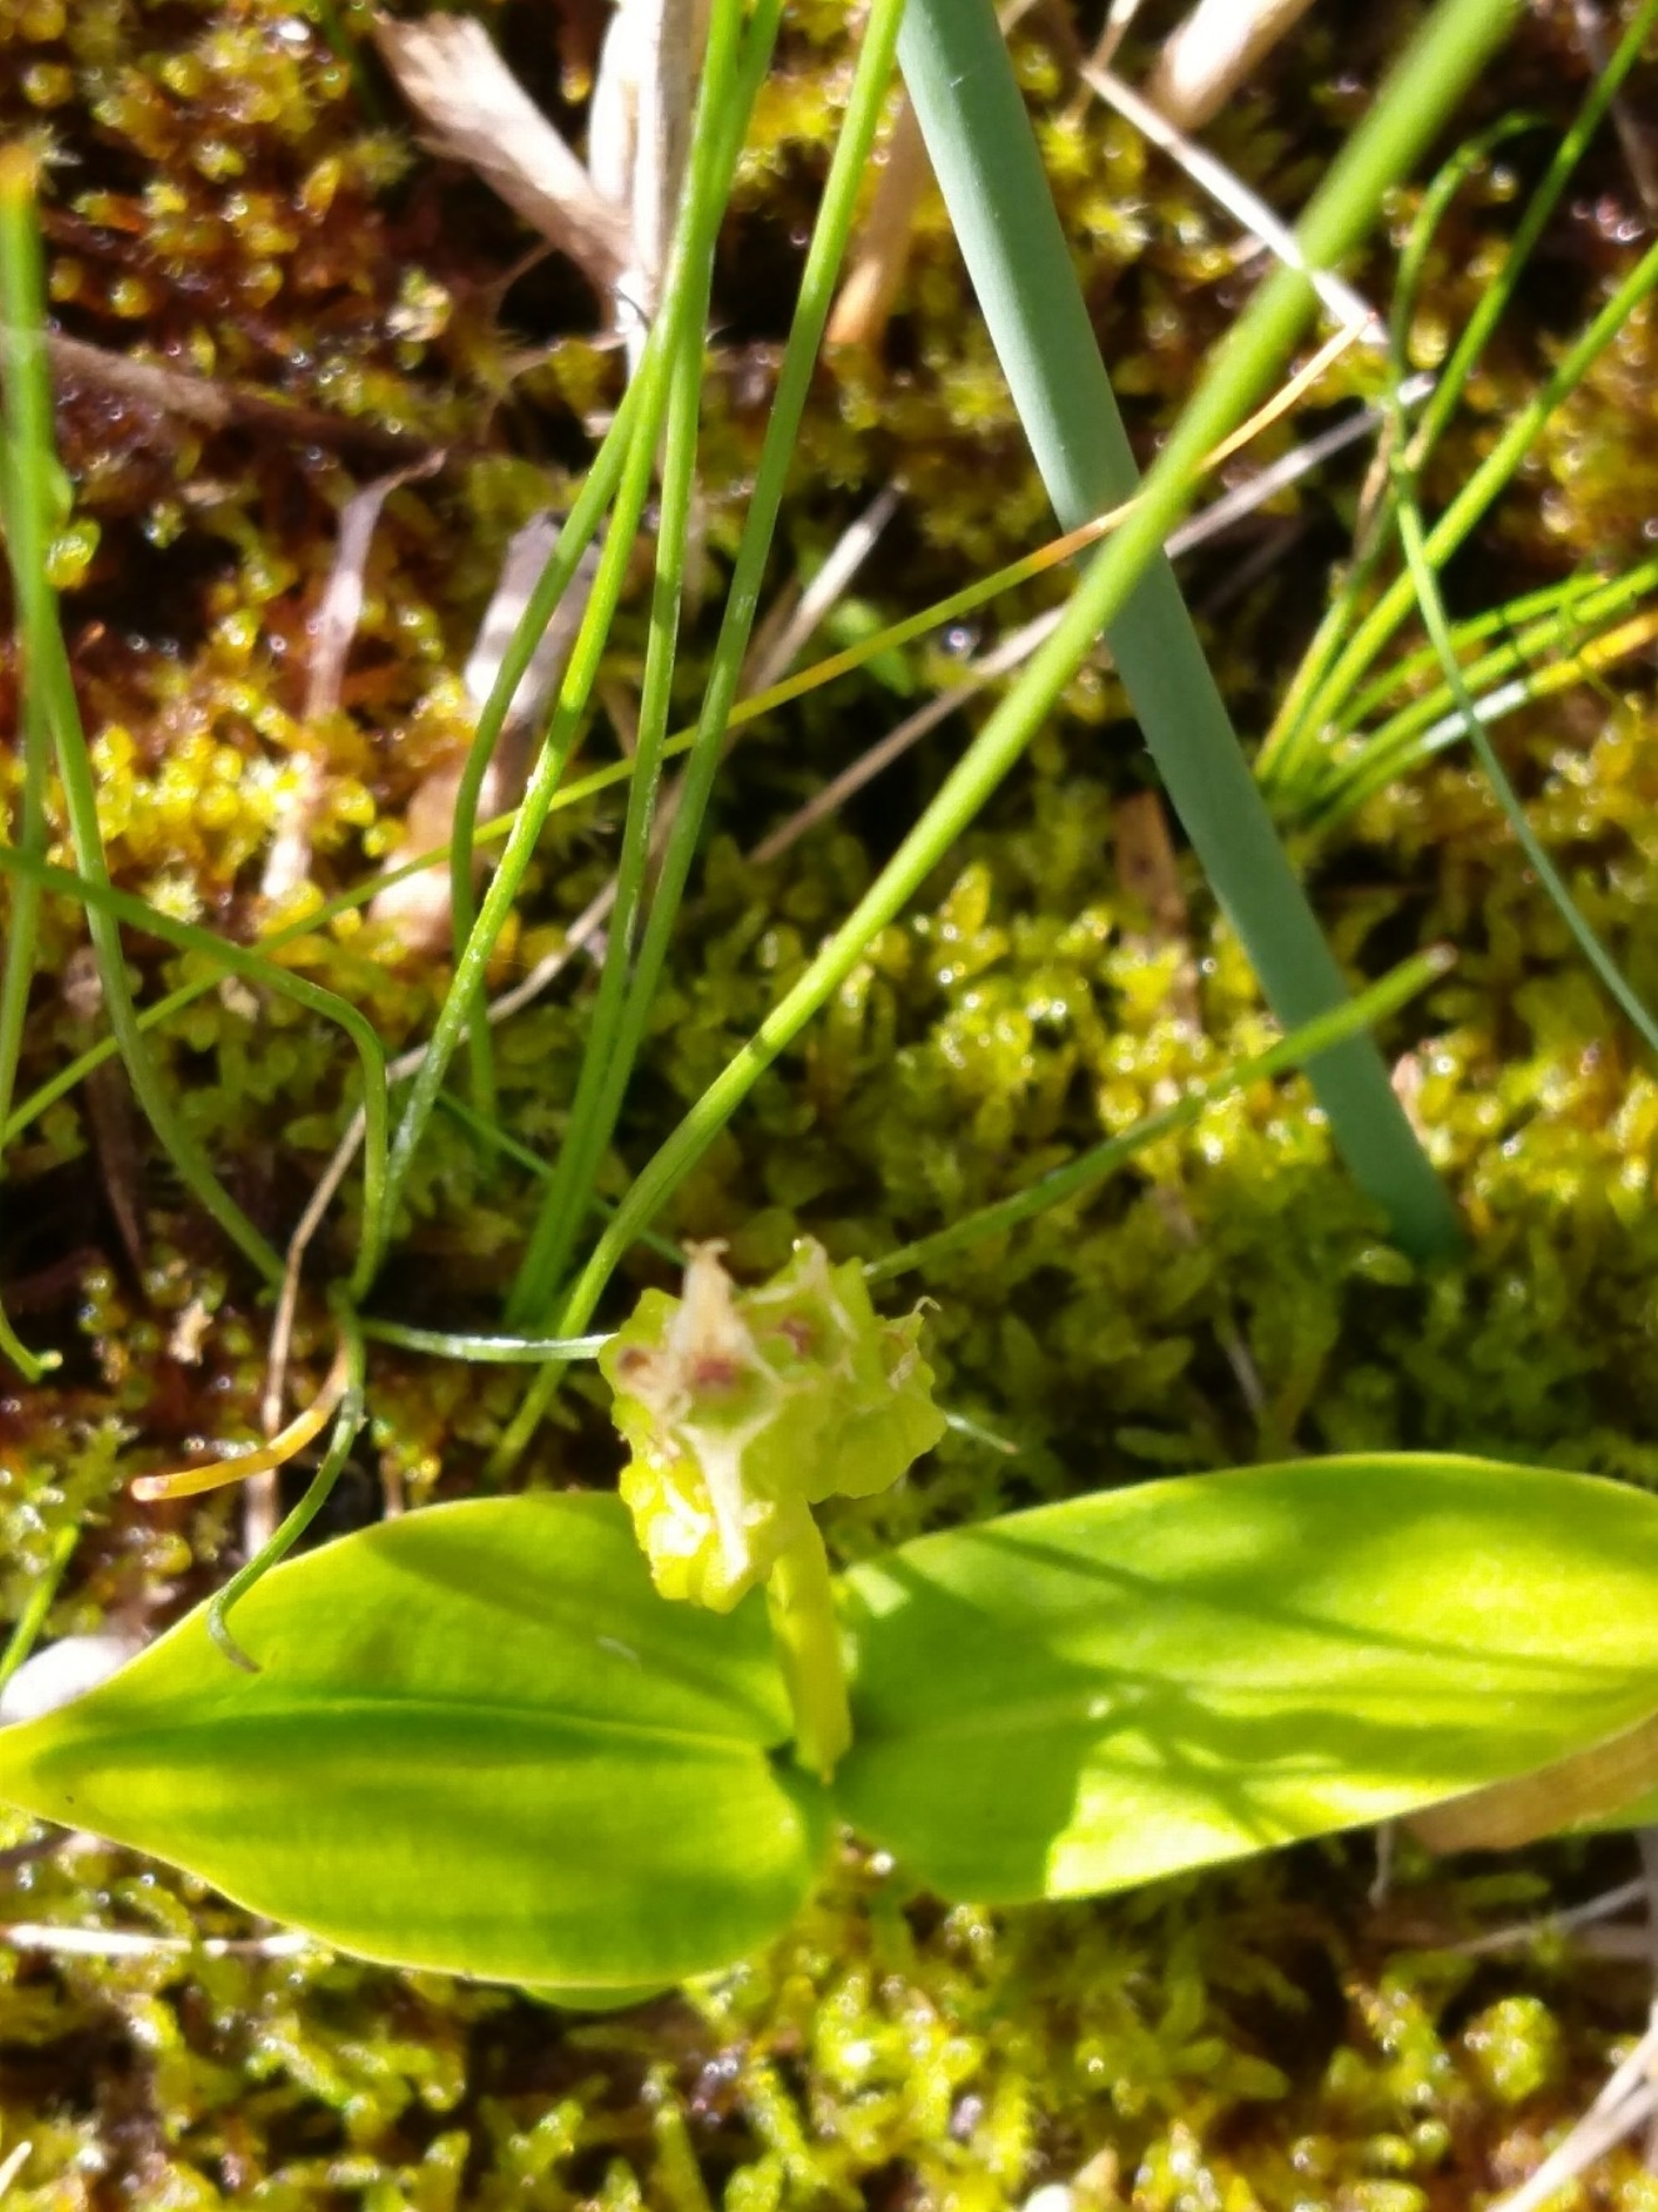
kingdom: Animalia
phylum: Arthropoda
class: Insecta
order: Coleoptera
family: Curculionidae
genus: Liparis
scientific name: Liparis loeselii
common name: Mygblomst
